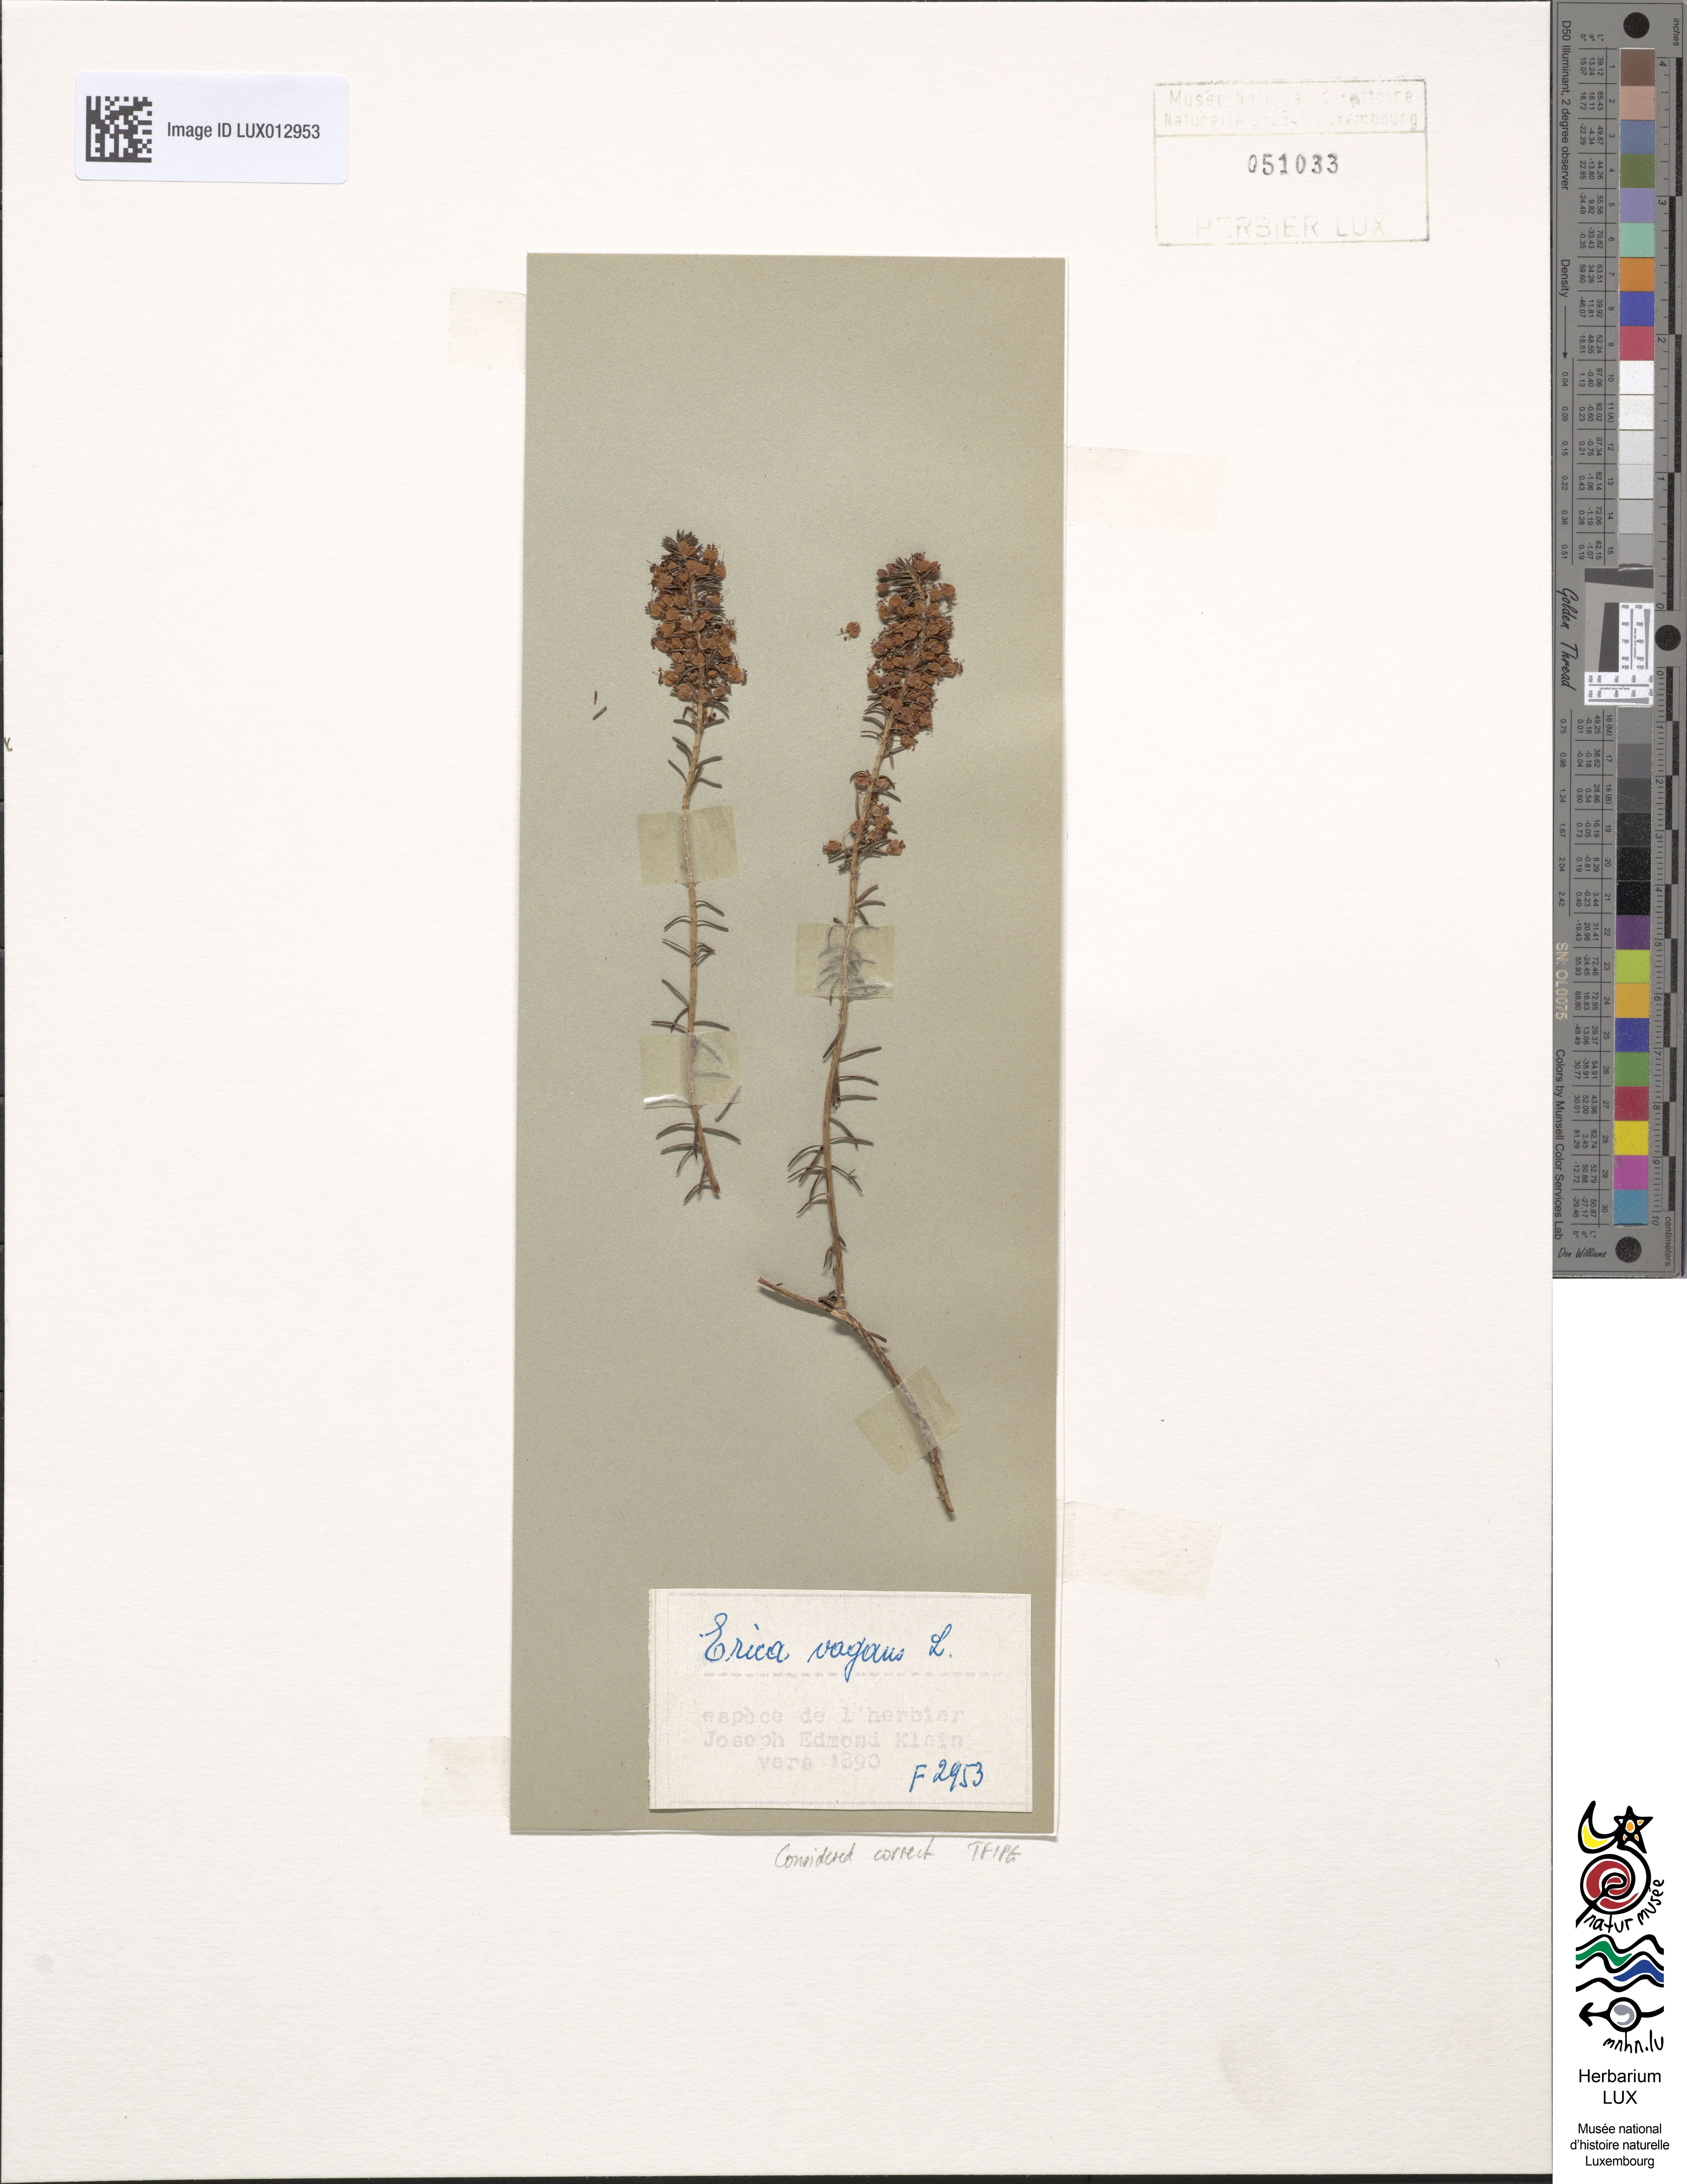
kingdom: Plantae
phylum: Tracheophyta
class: Magnoliopsida
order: Ericales
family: Ericaceae
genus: Erica
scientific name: Erica vagans
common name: Cornish heath
